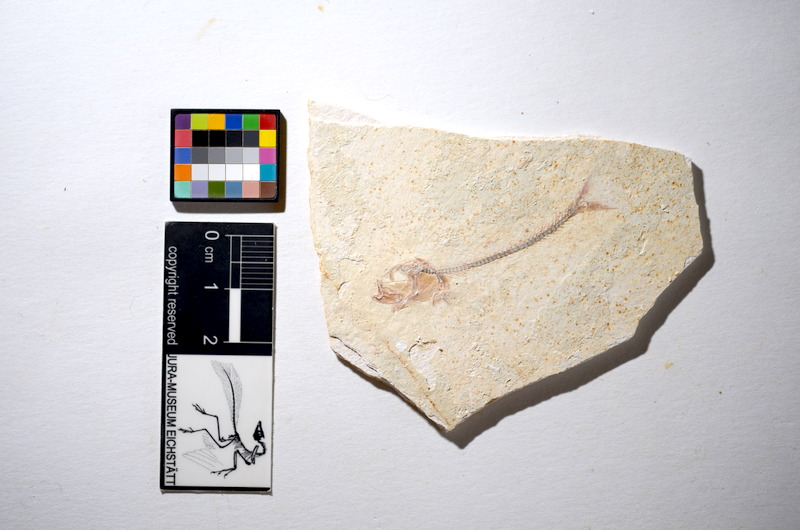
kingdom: Animalia
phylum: Chordata
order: Salmoniformes
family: Orthogonikleithridae
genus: Orthogonikleithrus
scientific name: Orthogonikleithrus hoelli
